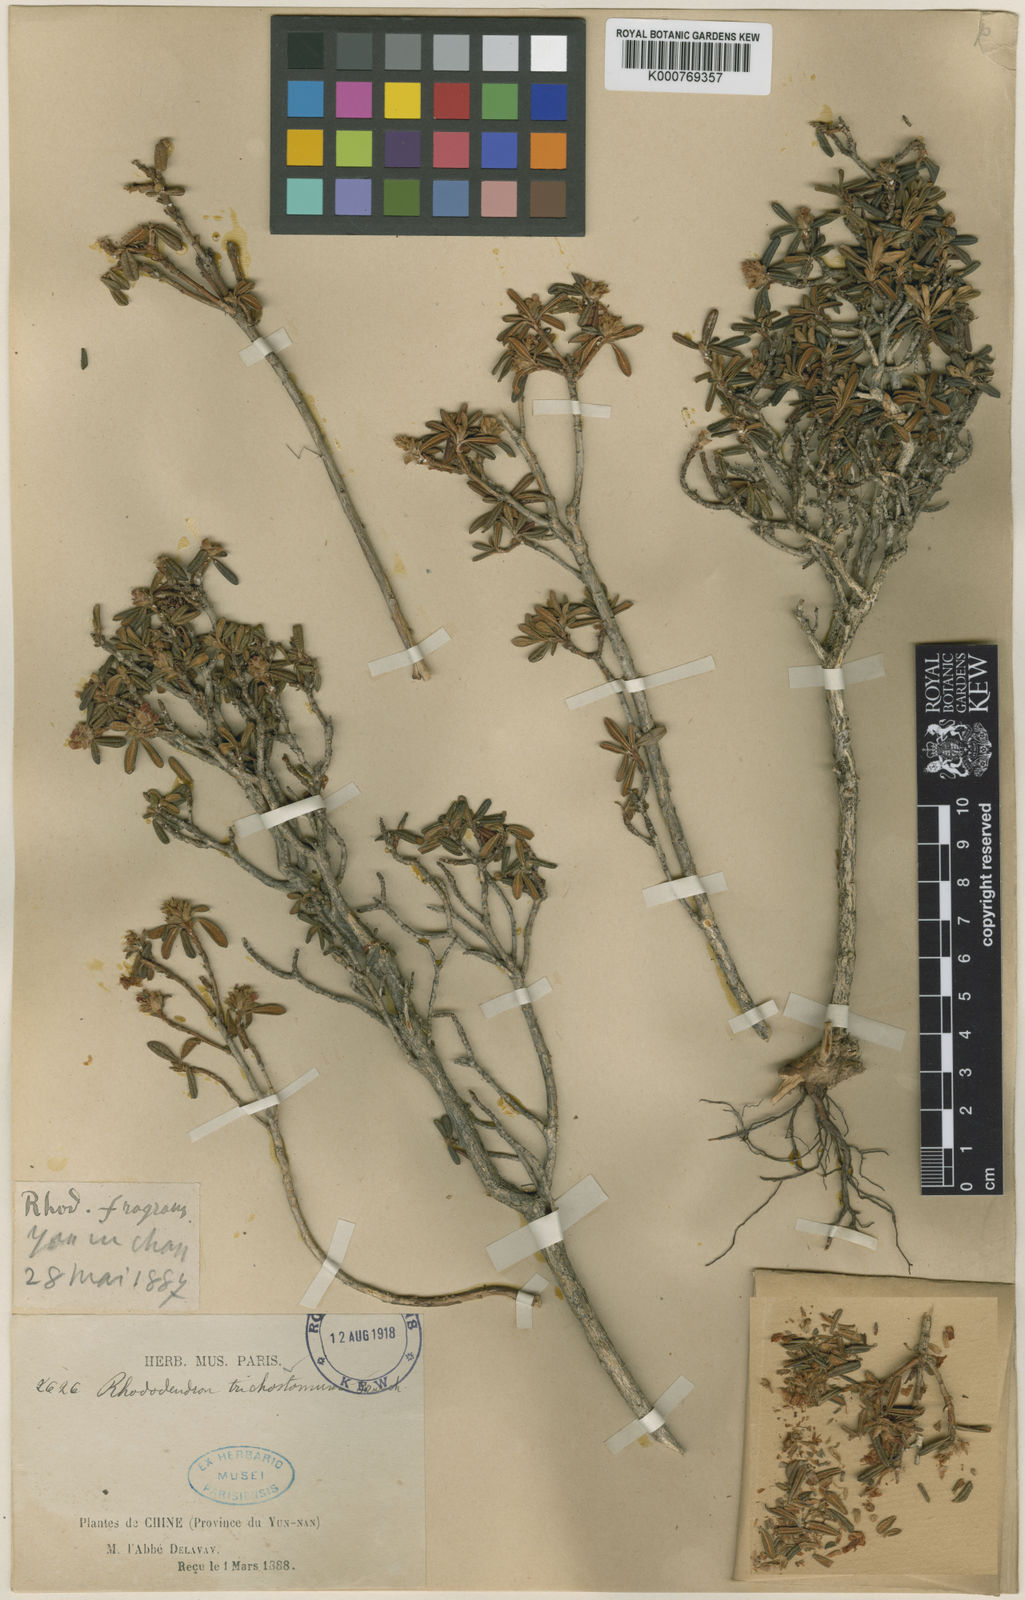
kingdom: Plantae
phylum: Tracheophyta
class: Magnoliopsida
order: Ericales
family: Ericaceae
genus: Rhododendron
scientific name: Rhododendron trichostomum
